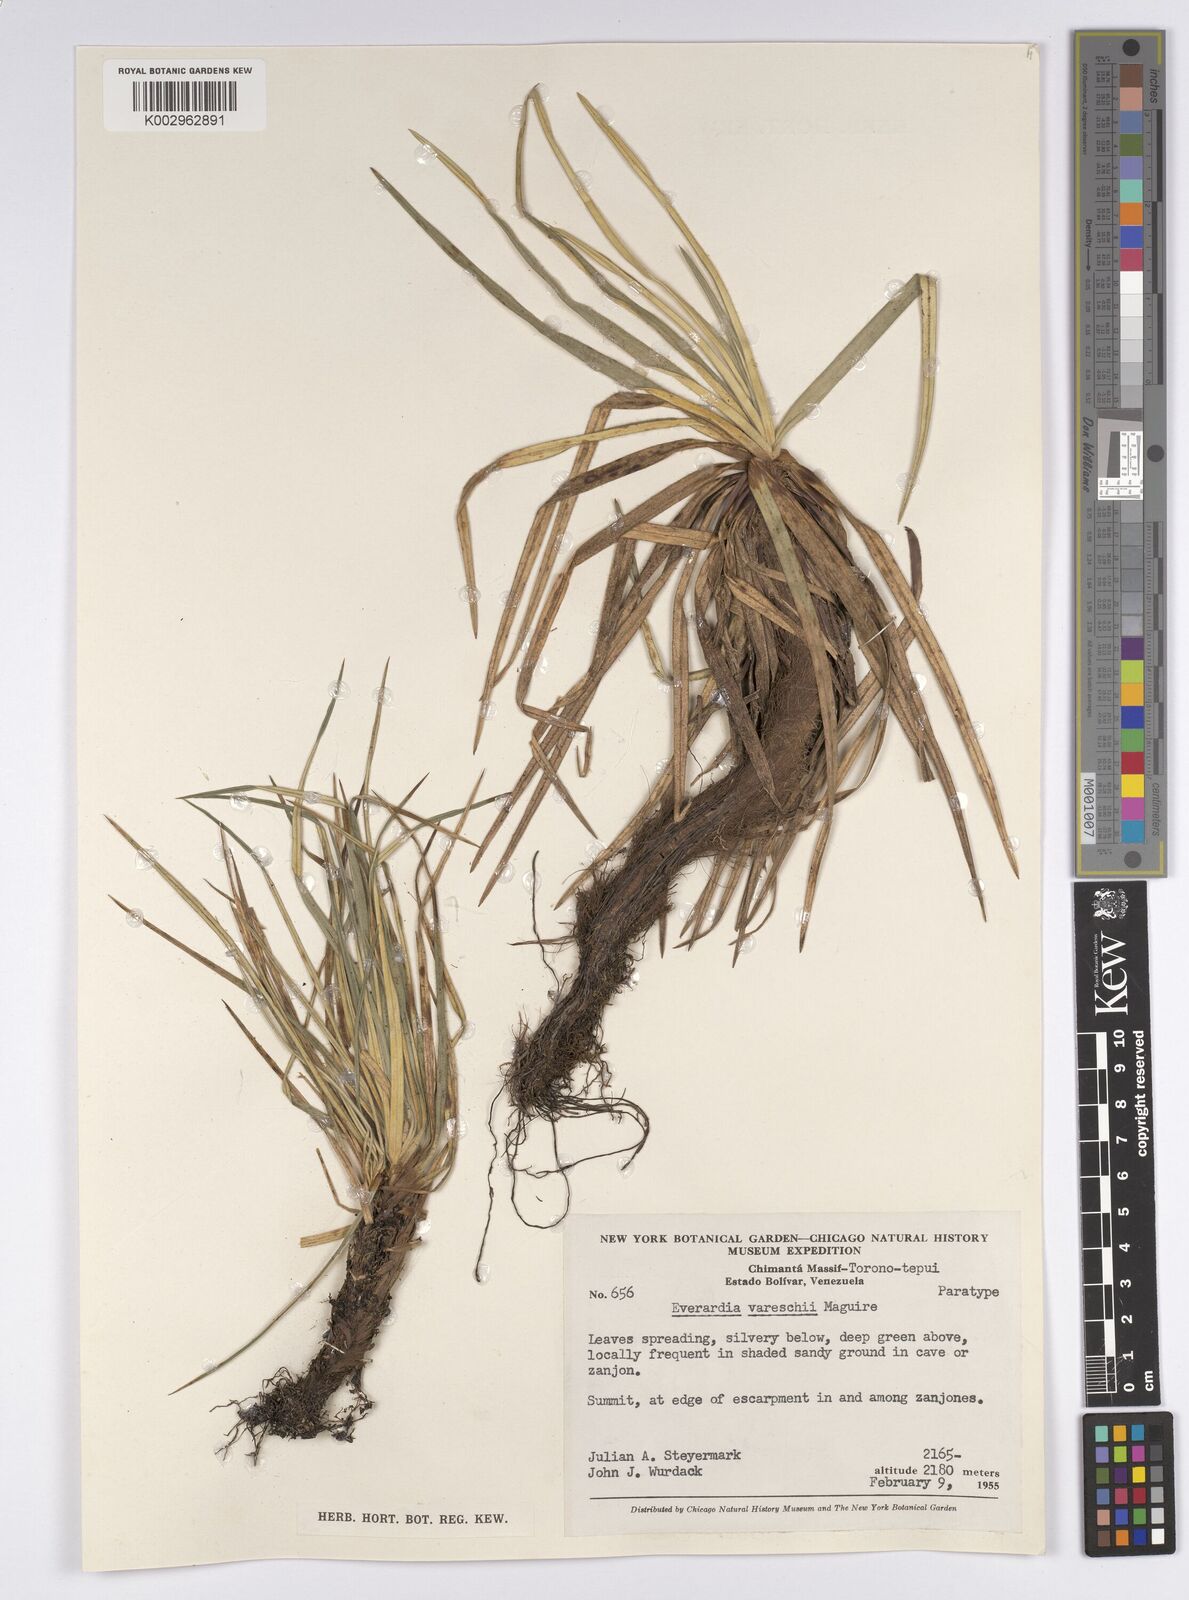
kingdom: Plantae
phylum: Tracheophyta
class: Liliopsida
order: Poales
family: Cyperaceae
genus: Cephalocarpus
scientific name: Cephalocarpus vareschii
